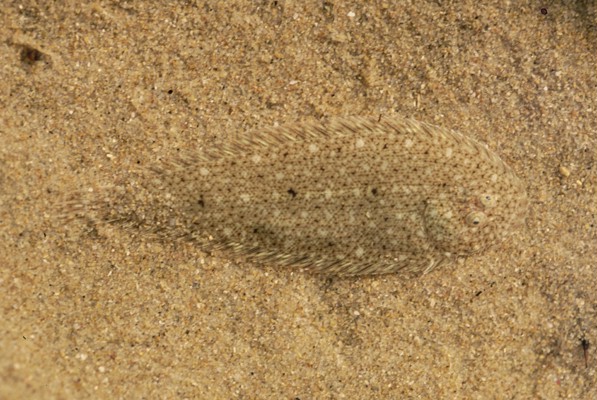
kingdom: Animalia
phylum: Chordata
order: Pleuronectiformes
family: Soleidae
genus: Heteromycteris
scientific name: Heteromycteris capensis
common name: Cape sole
